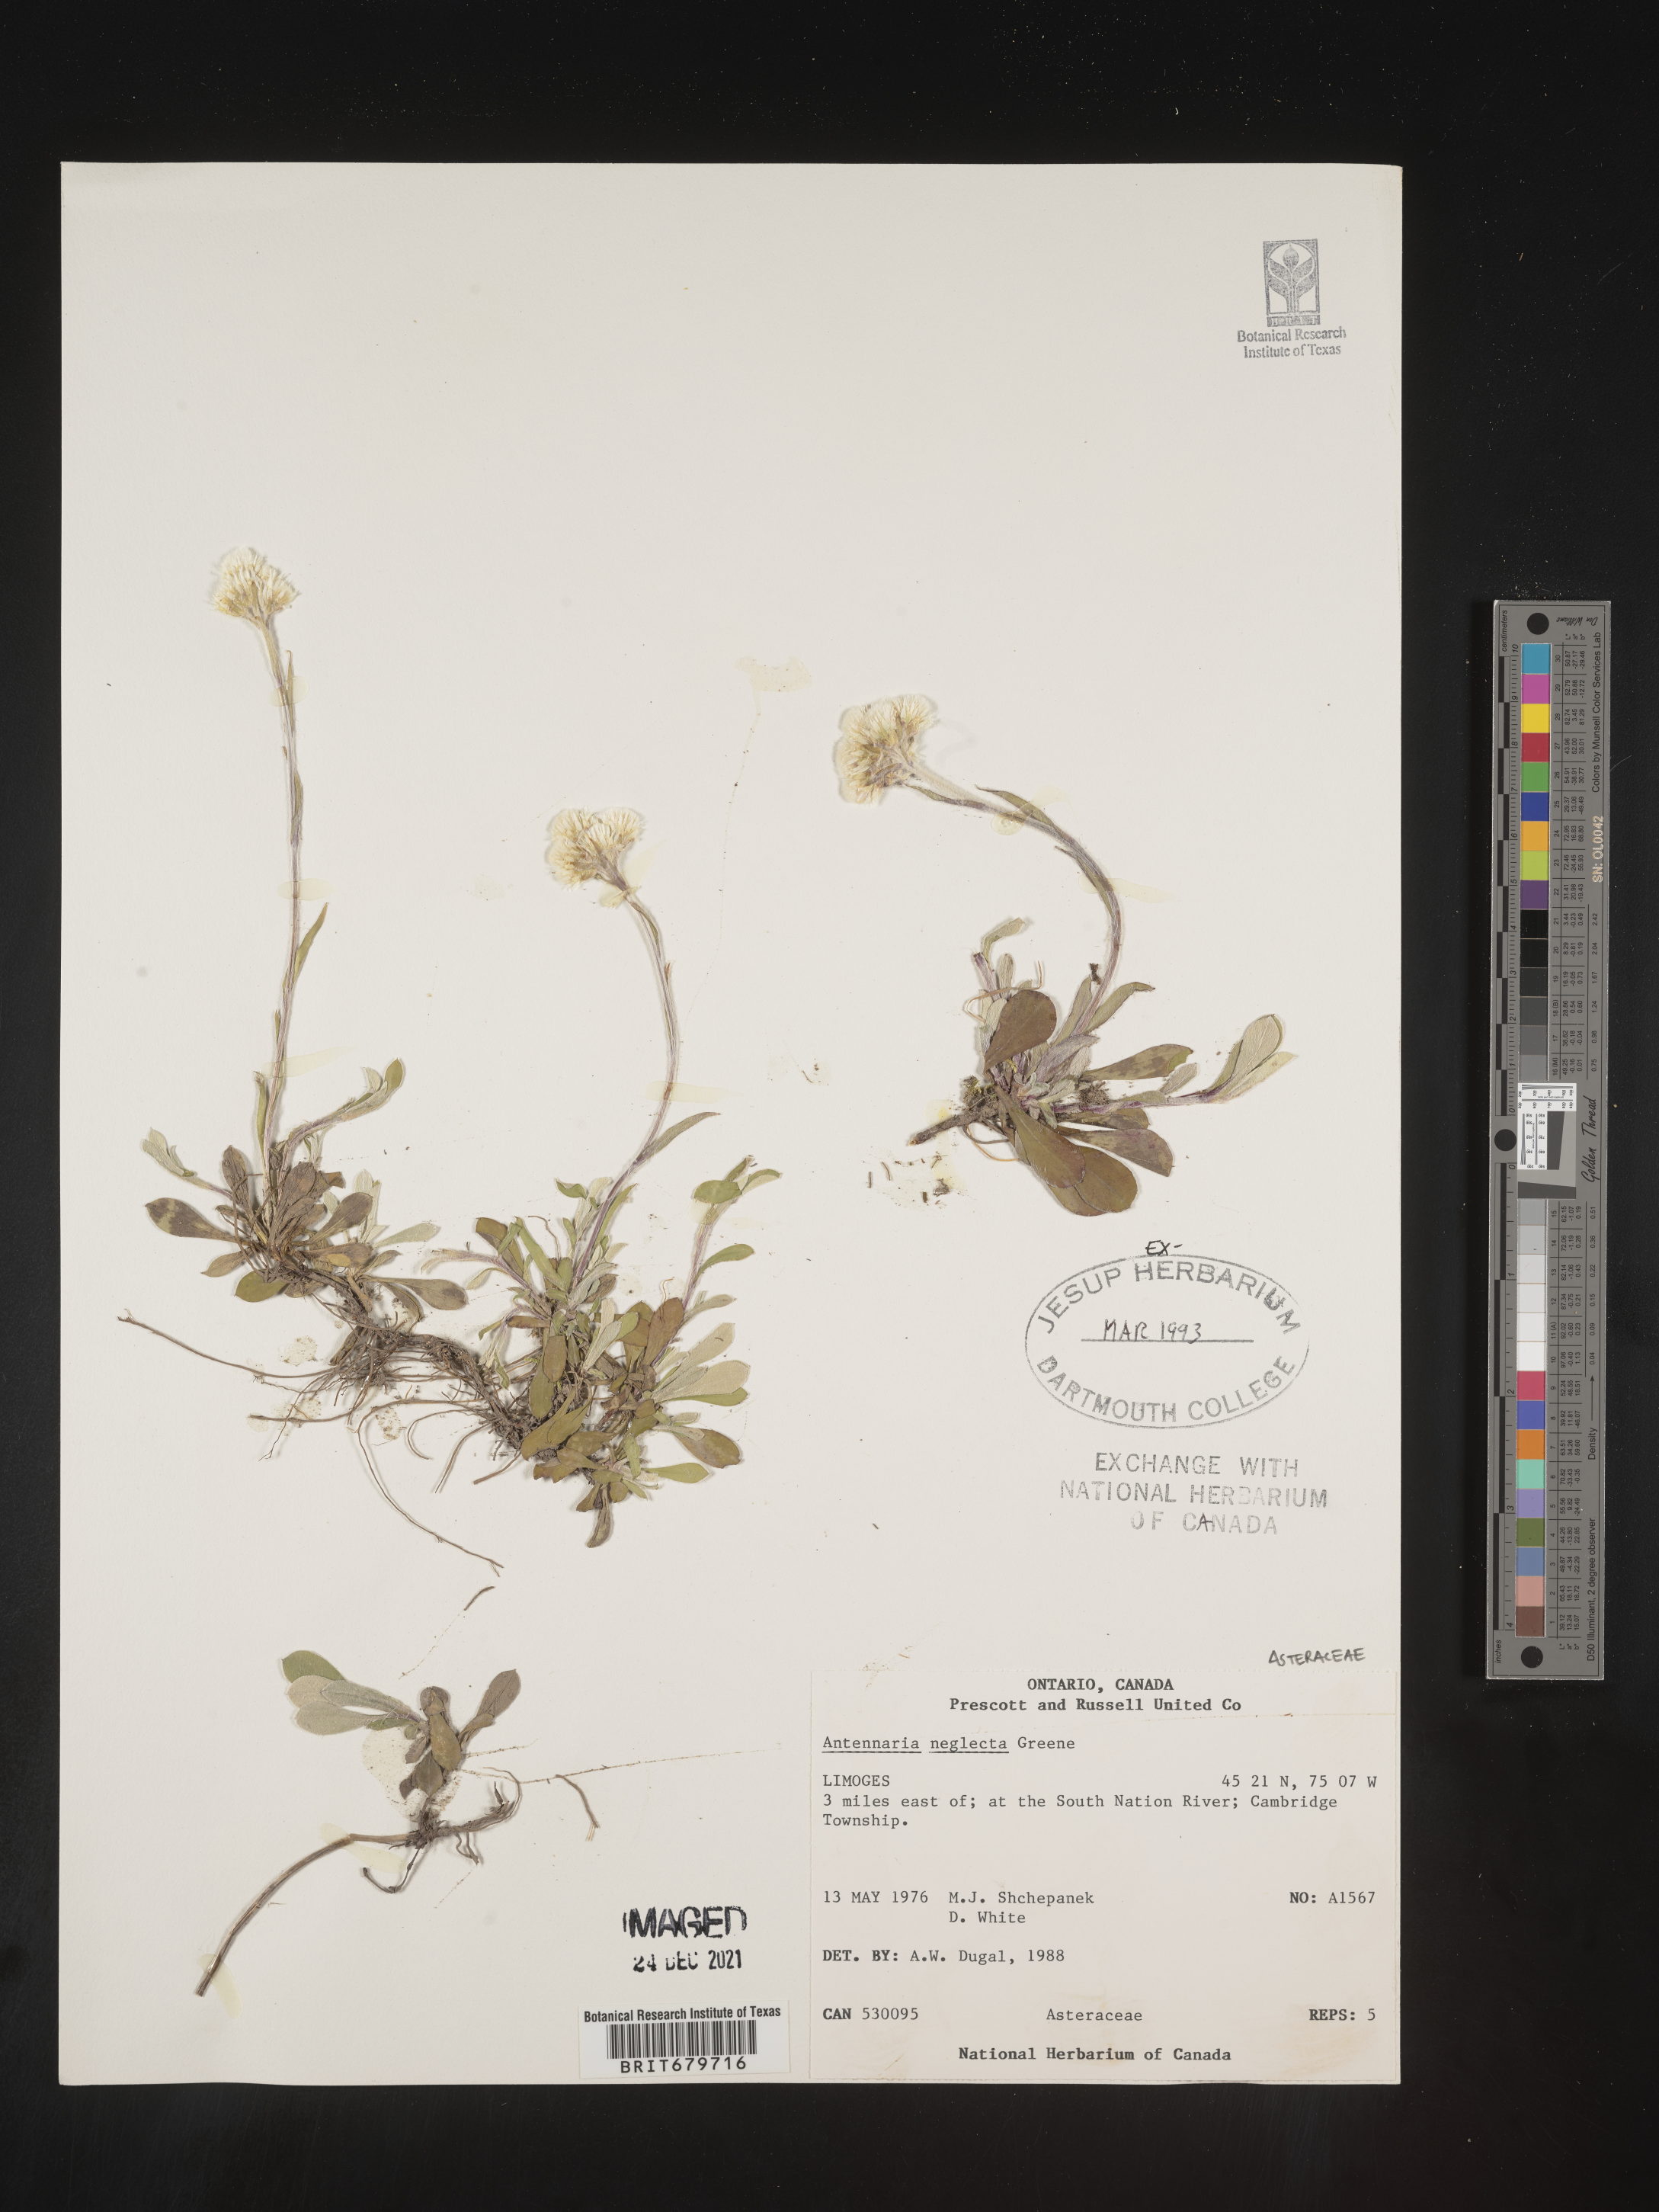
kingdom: Plantae
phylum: Tracheophyta
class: Magnoliopsida
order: Asterales
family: Asteraceae
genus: Antennaria
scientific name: Antennaria neglecta
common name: Field pussytoes
